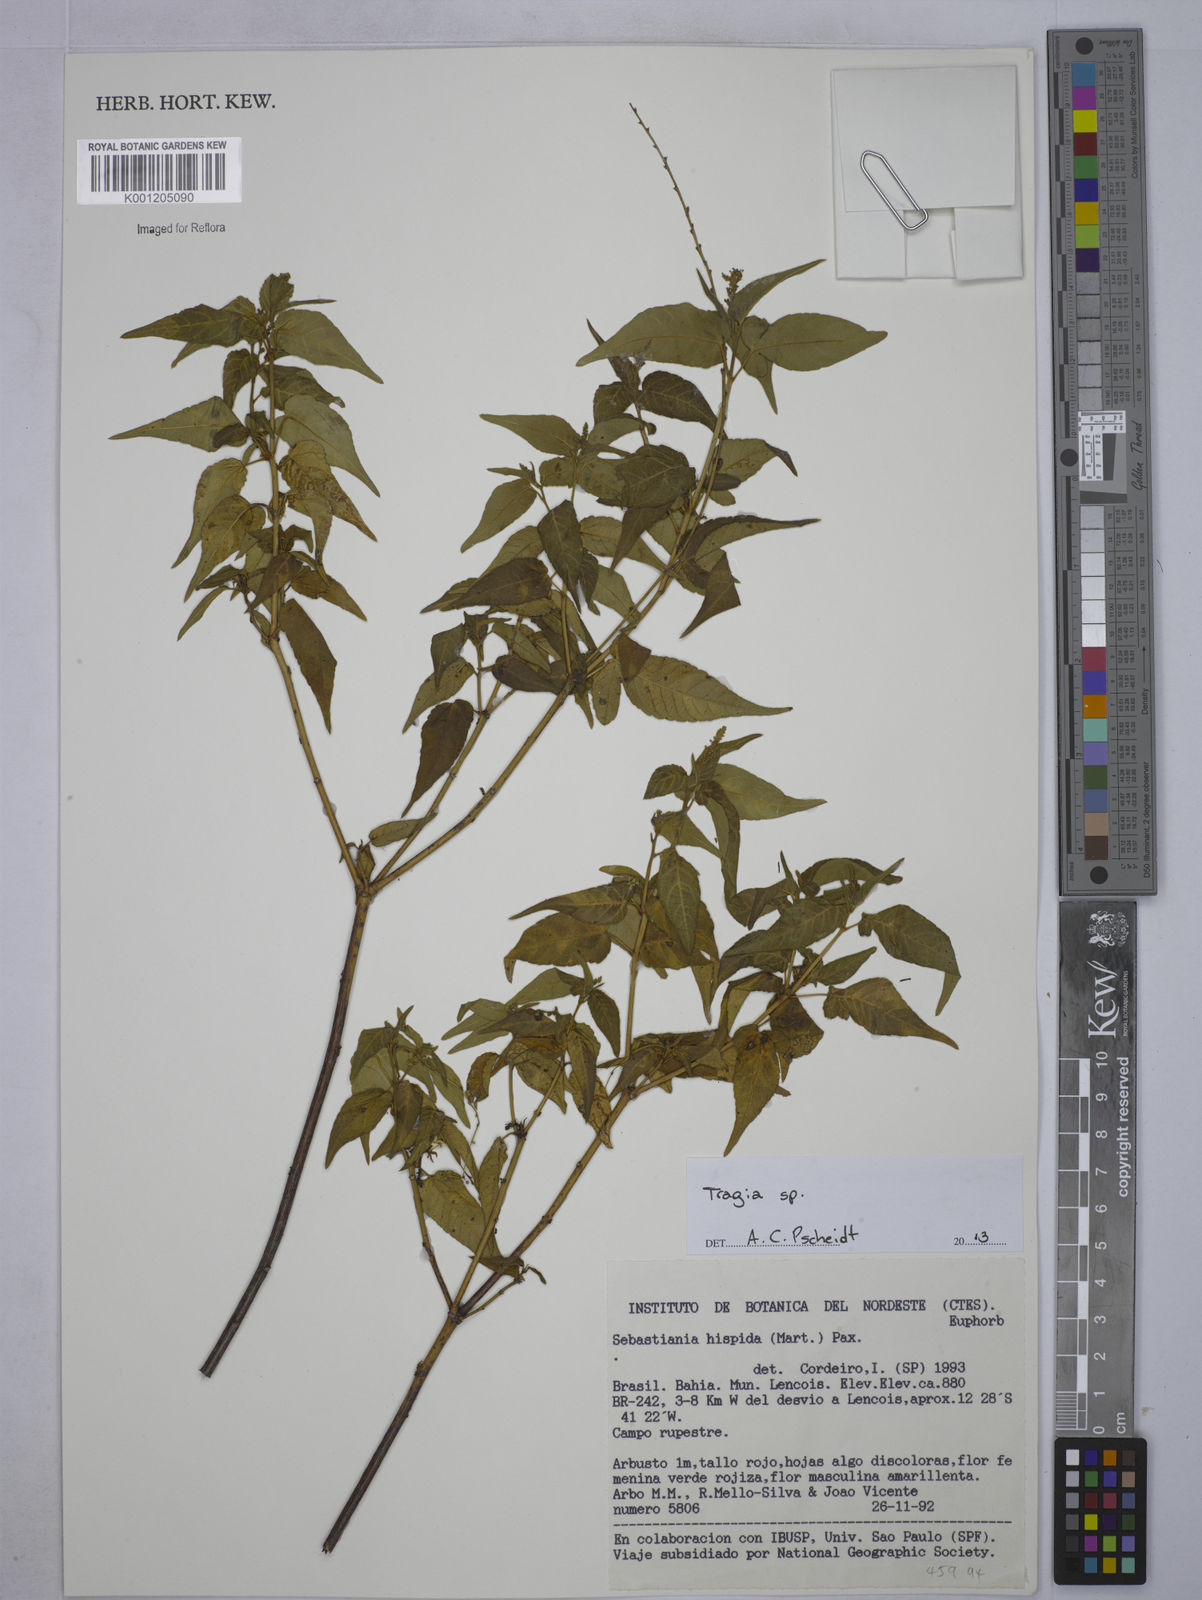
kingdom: Plantae
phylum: Tracheophyta
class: Magnoliopsida
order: Malpighiales
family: Euphorbiaceae
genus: Tragia
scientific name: Tragia
